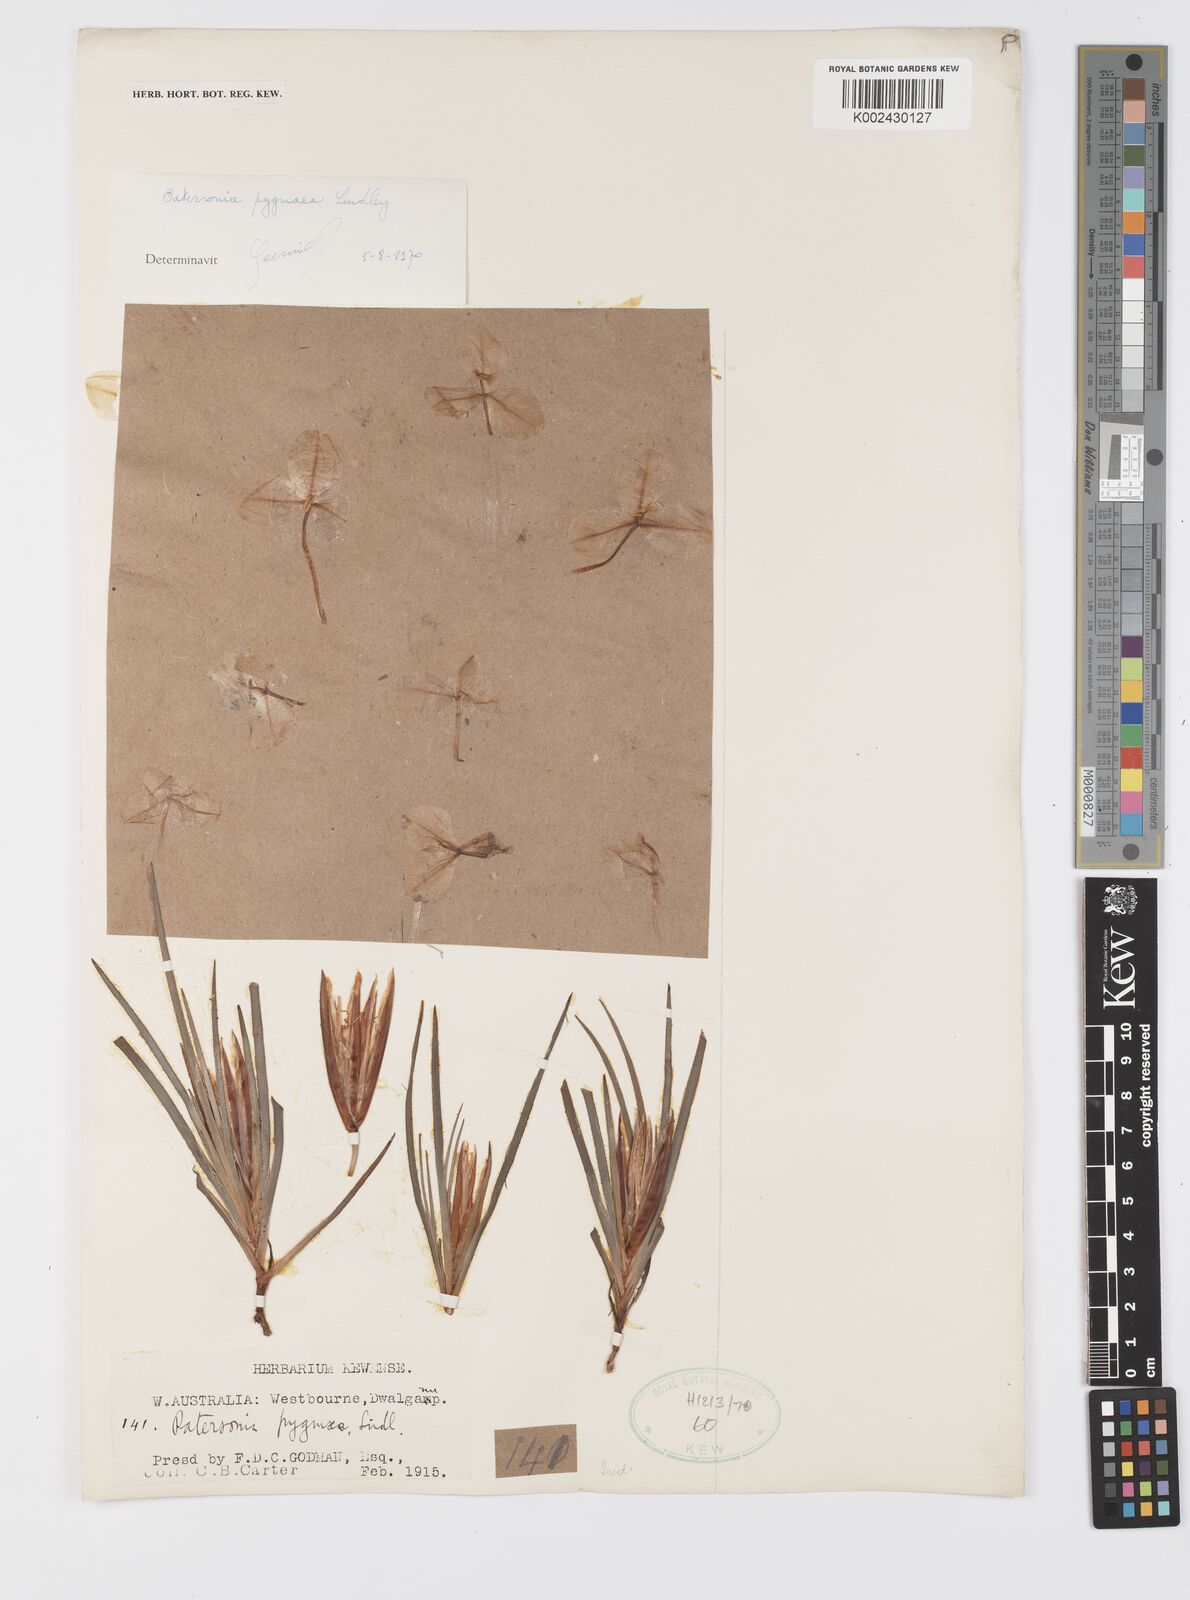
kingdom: Plantae
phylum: Tracheophyta
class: Liliopsida
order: Asparagales
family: Iridaceae
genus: Patersonia
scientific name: Patersonia pygmaea
